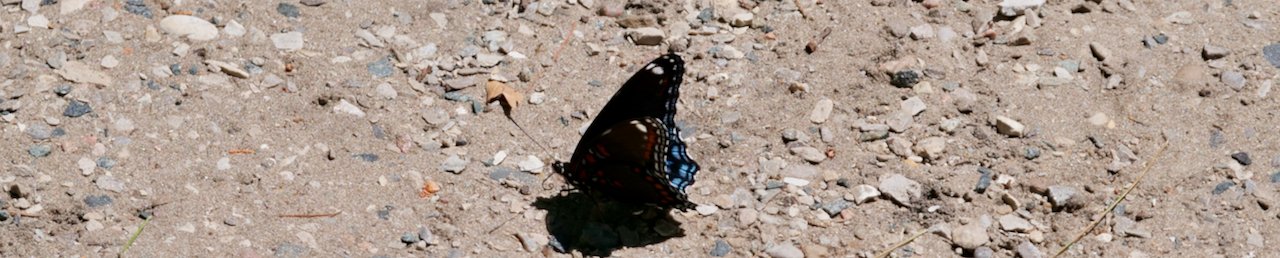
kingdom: Animalia
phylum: Arthropoda
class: Insecta
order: Lepidoptera
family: Nymphalidae
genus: Limenitis
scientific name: Limenitis astyanax
